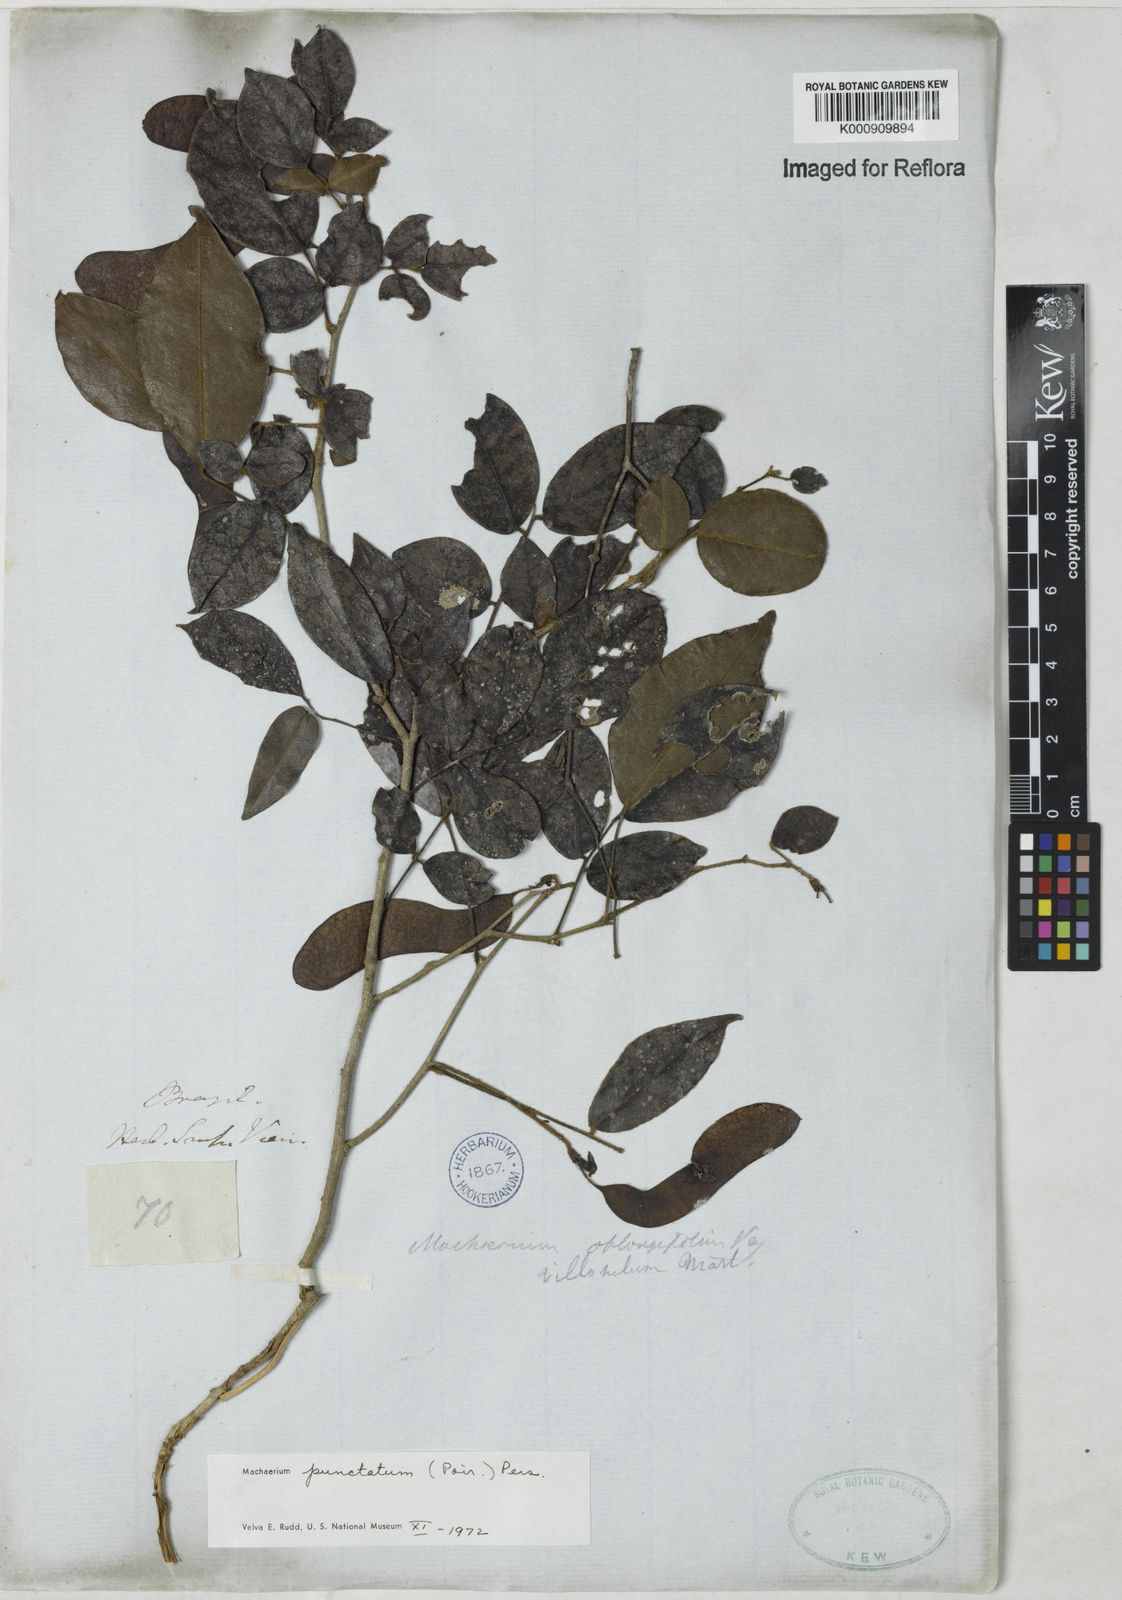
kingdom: Plantae
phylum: Tracheophyta
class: Magnoliopsida
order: Fabales
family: Fabaceae
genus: Machaerium
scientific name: Machaerium punctatum
